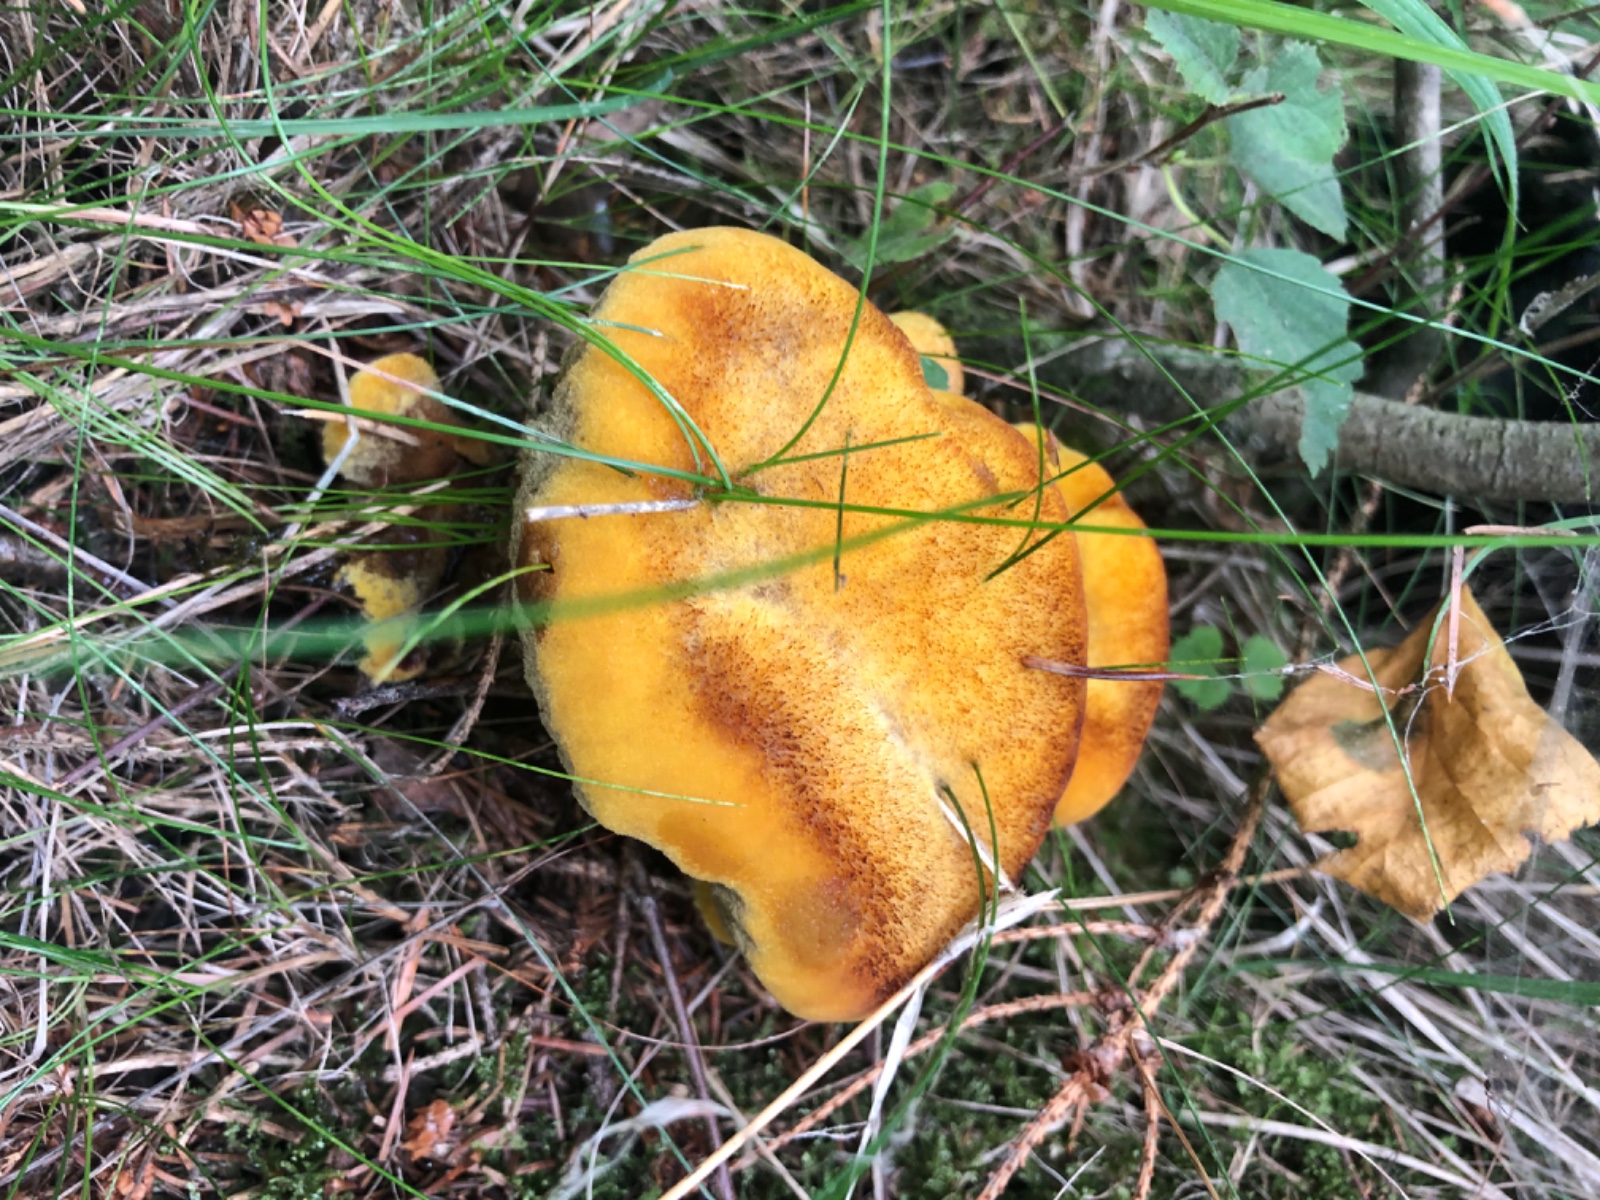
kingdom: Fungi
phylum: Basidiomycota
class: Agaricomycetes
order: Polyporales
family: Laetiporaceae
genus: Phaeolus
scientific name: Phaeolus schweinitzii
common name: brunporesvamp
